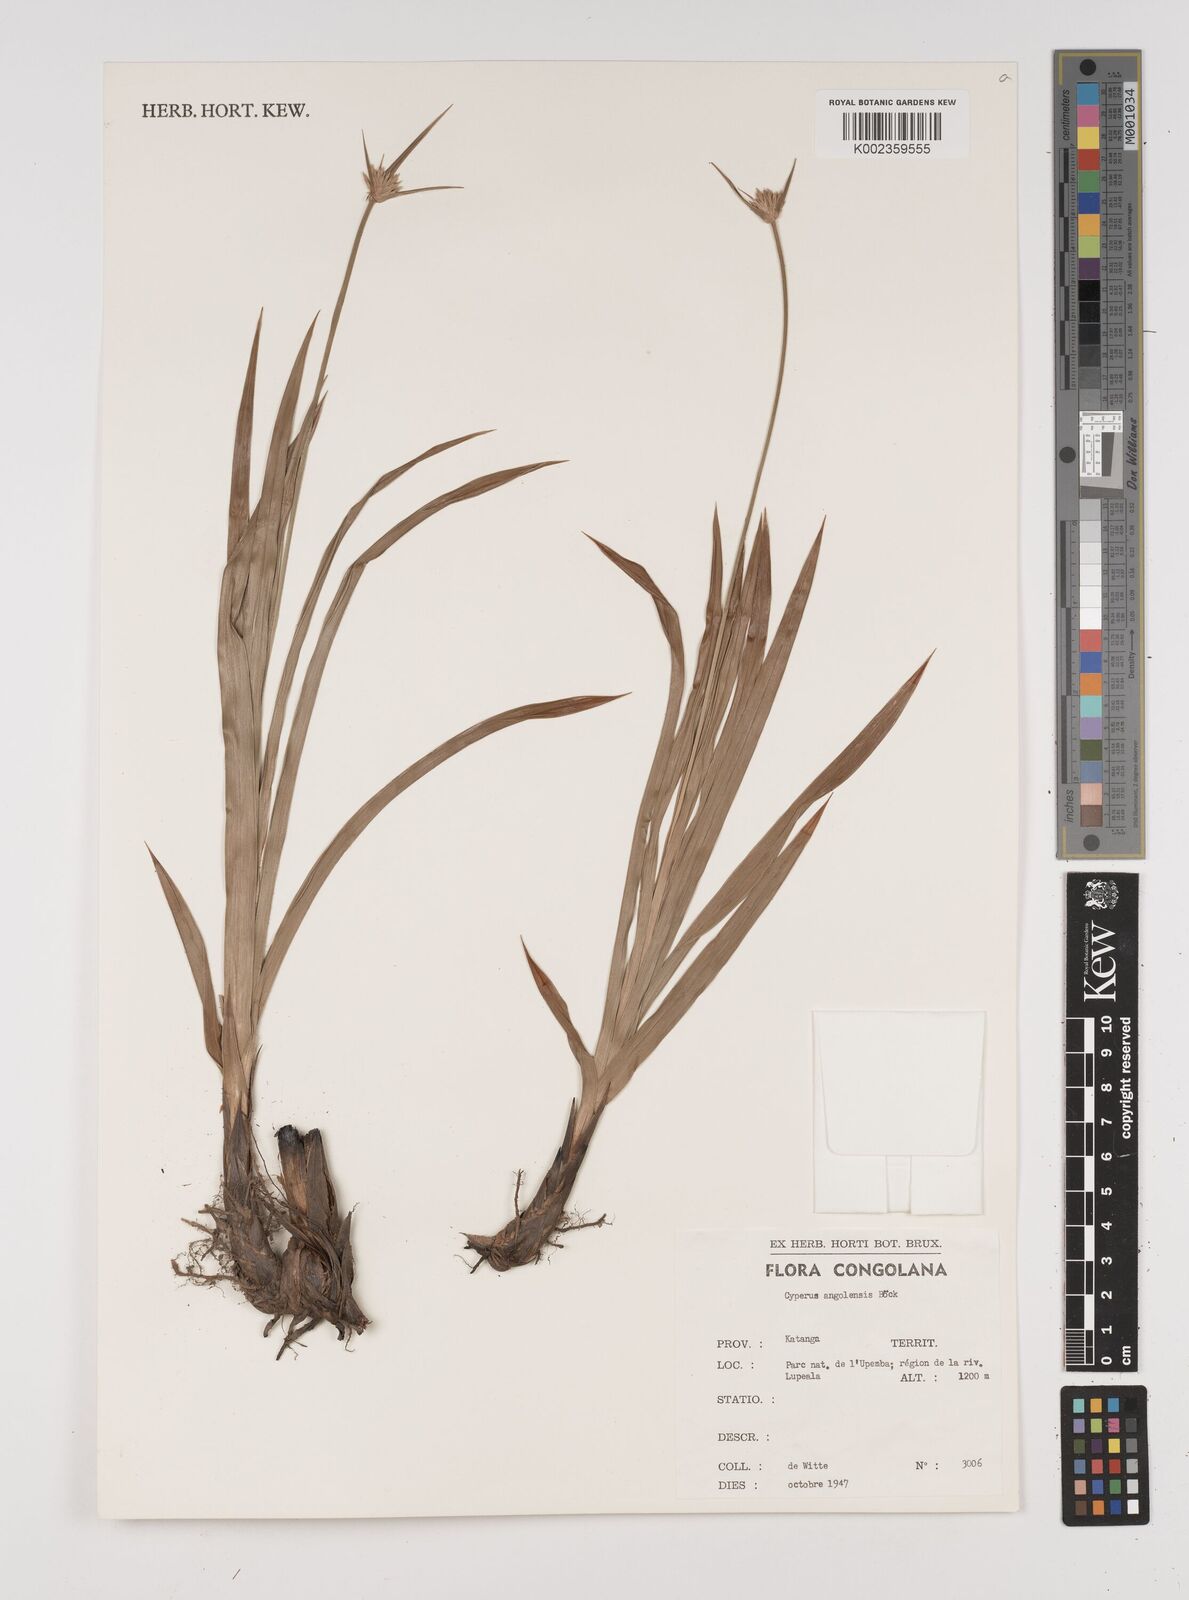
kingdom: Plantae
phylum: Tracheophyta
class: Liliopsida
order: Poales
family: Cyperaceae
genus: Cyperus
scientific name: Cyperus angolensis
